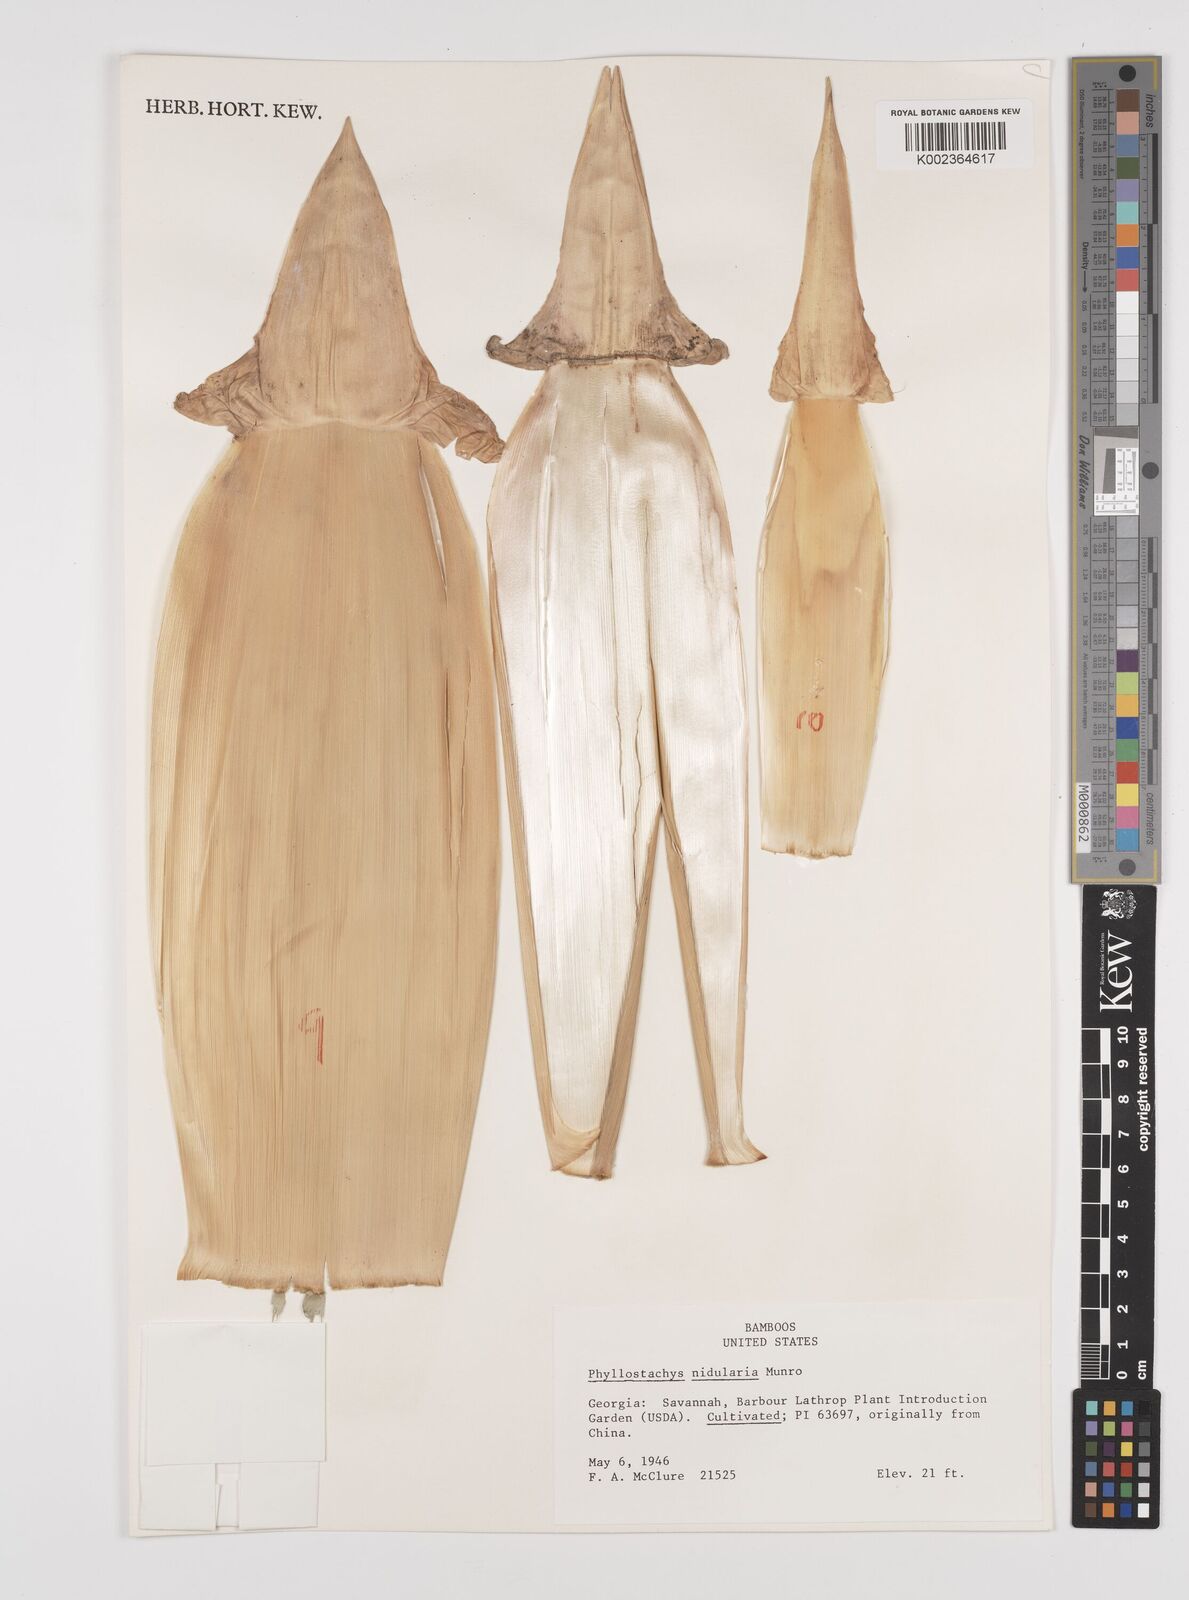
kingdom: Plantae
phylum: Tracheophyta
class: Liliopsida
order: Poales
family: Poaceae
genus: Phyllostachys
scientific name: Phyllostachys nidularia
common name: Broom bamboo
